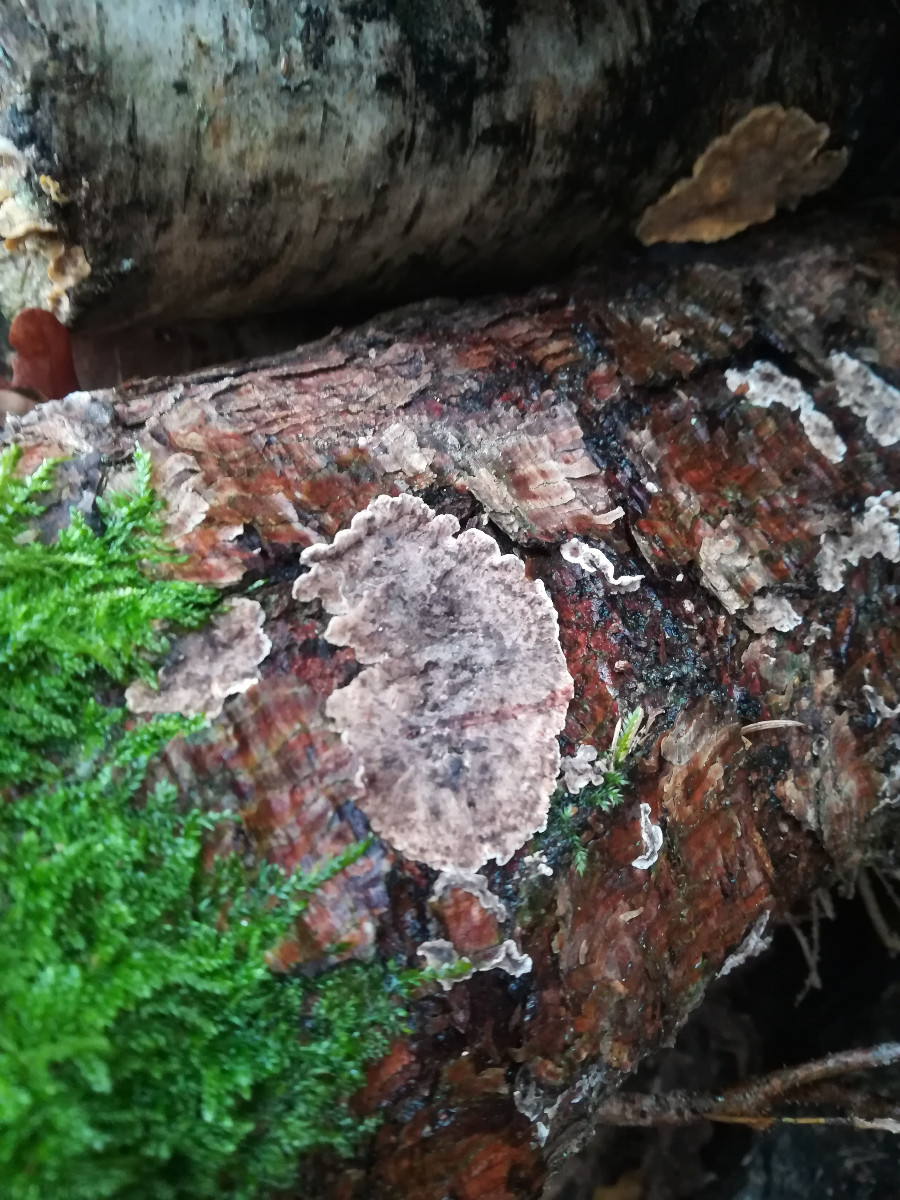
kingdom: Fungi
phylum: Basidiomycota
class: Agaricomycetes
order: Russulales
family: Stereaceae
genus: Stereum
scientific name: Stereum sanguinolentum
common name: blødende lædersvamp
